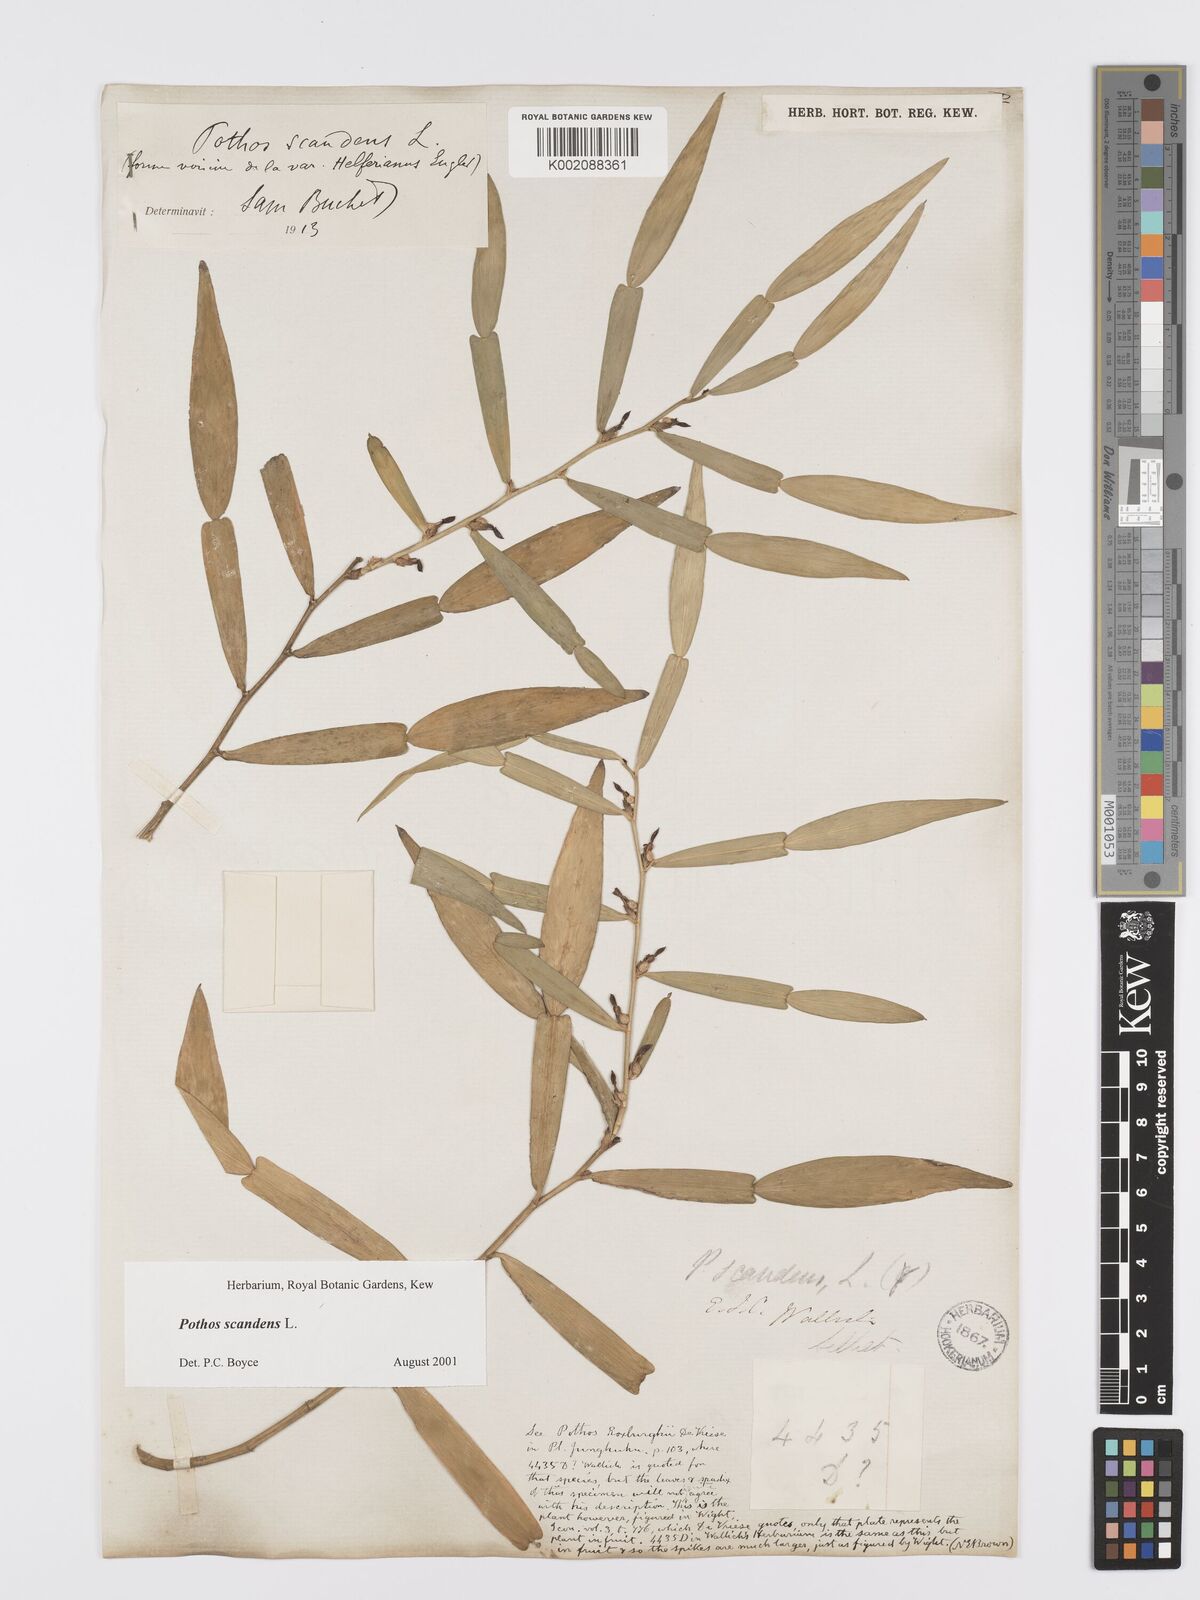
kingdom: Plantae
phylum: Tracheophyta
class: Liliopsida
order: Alismatales
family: Araceae
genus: Pothos
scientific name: Pothos scandens
